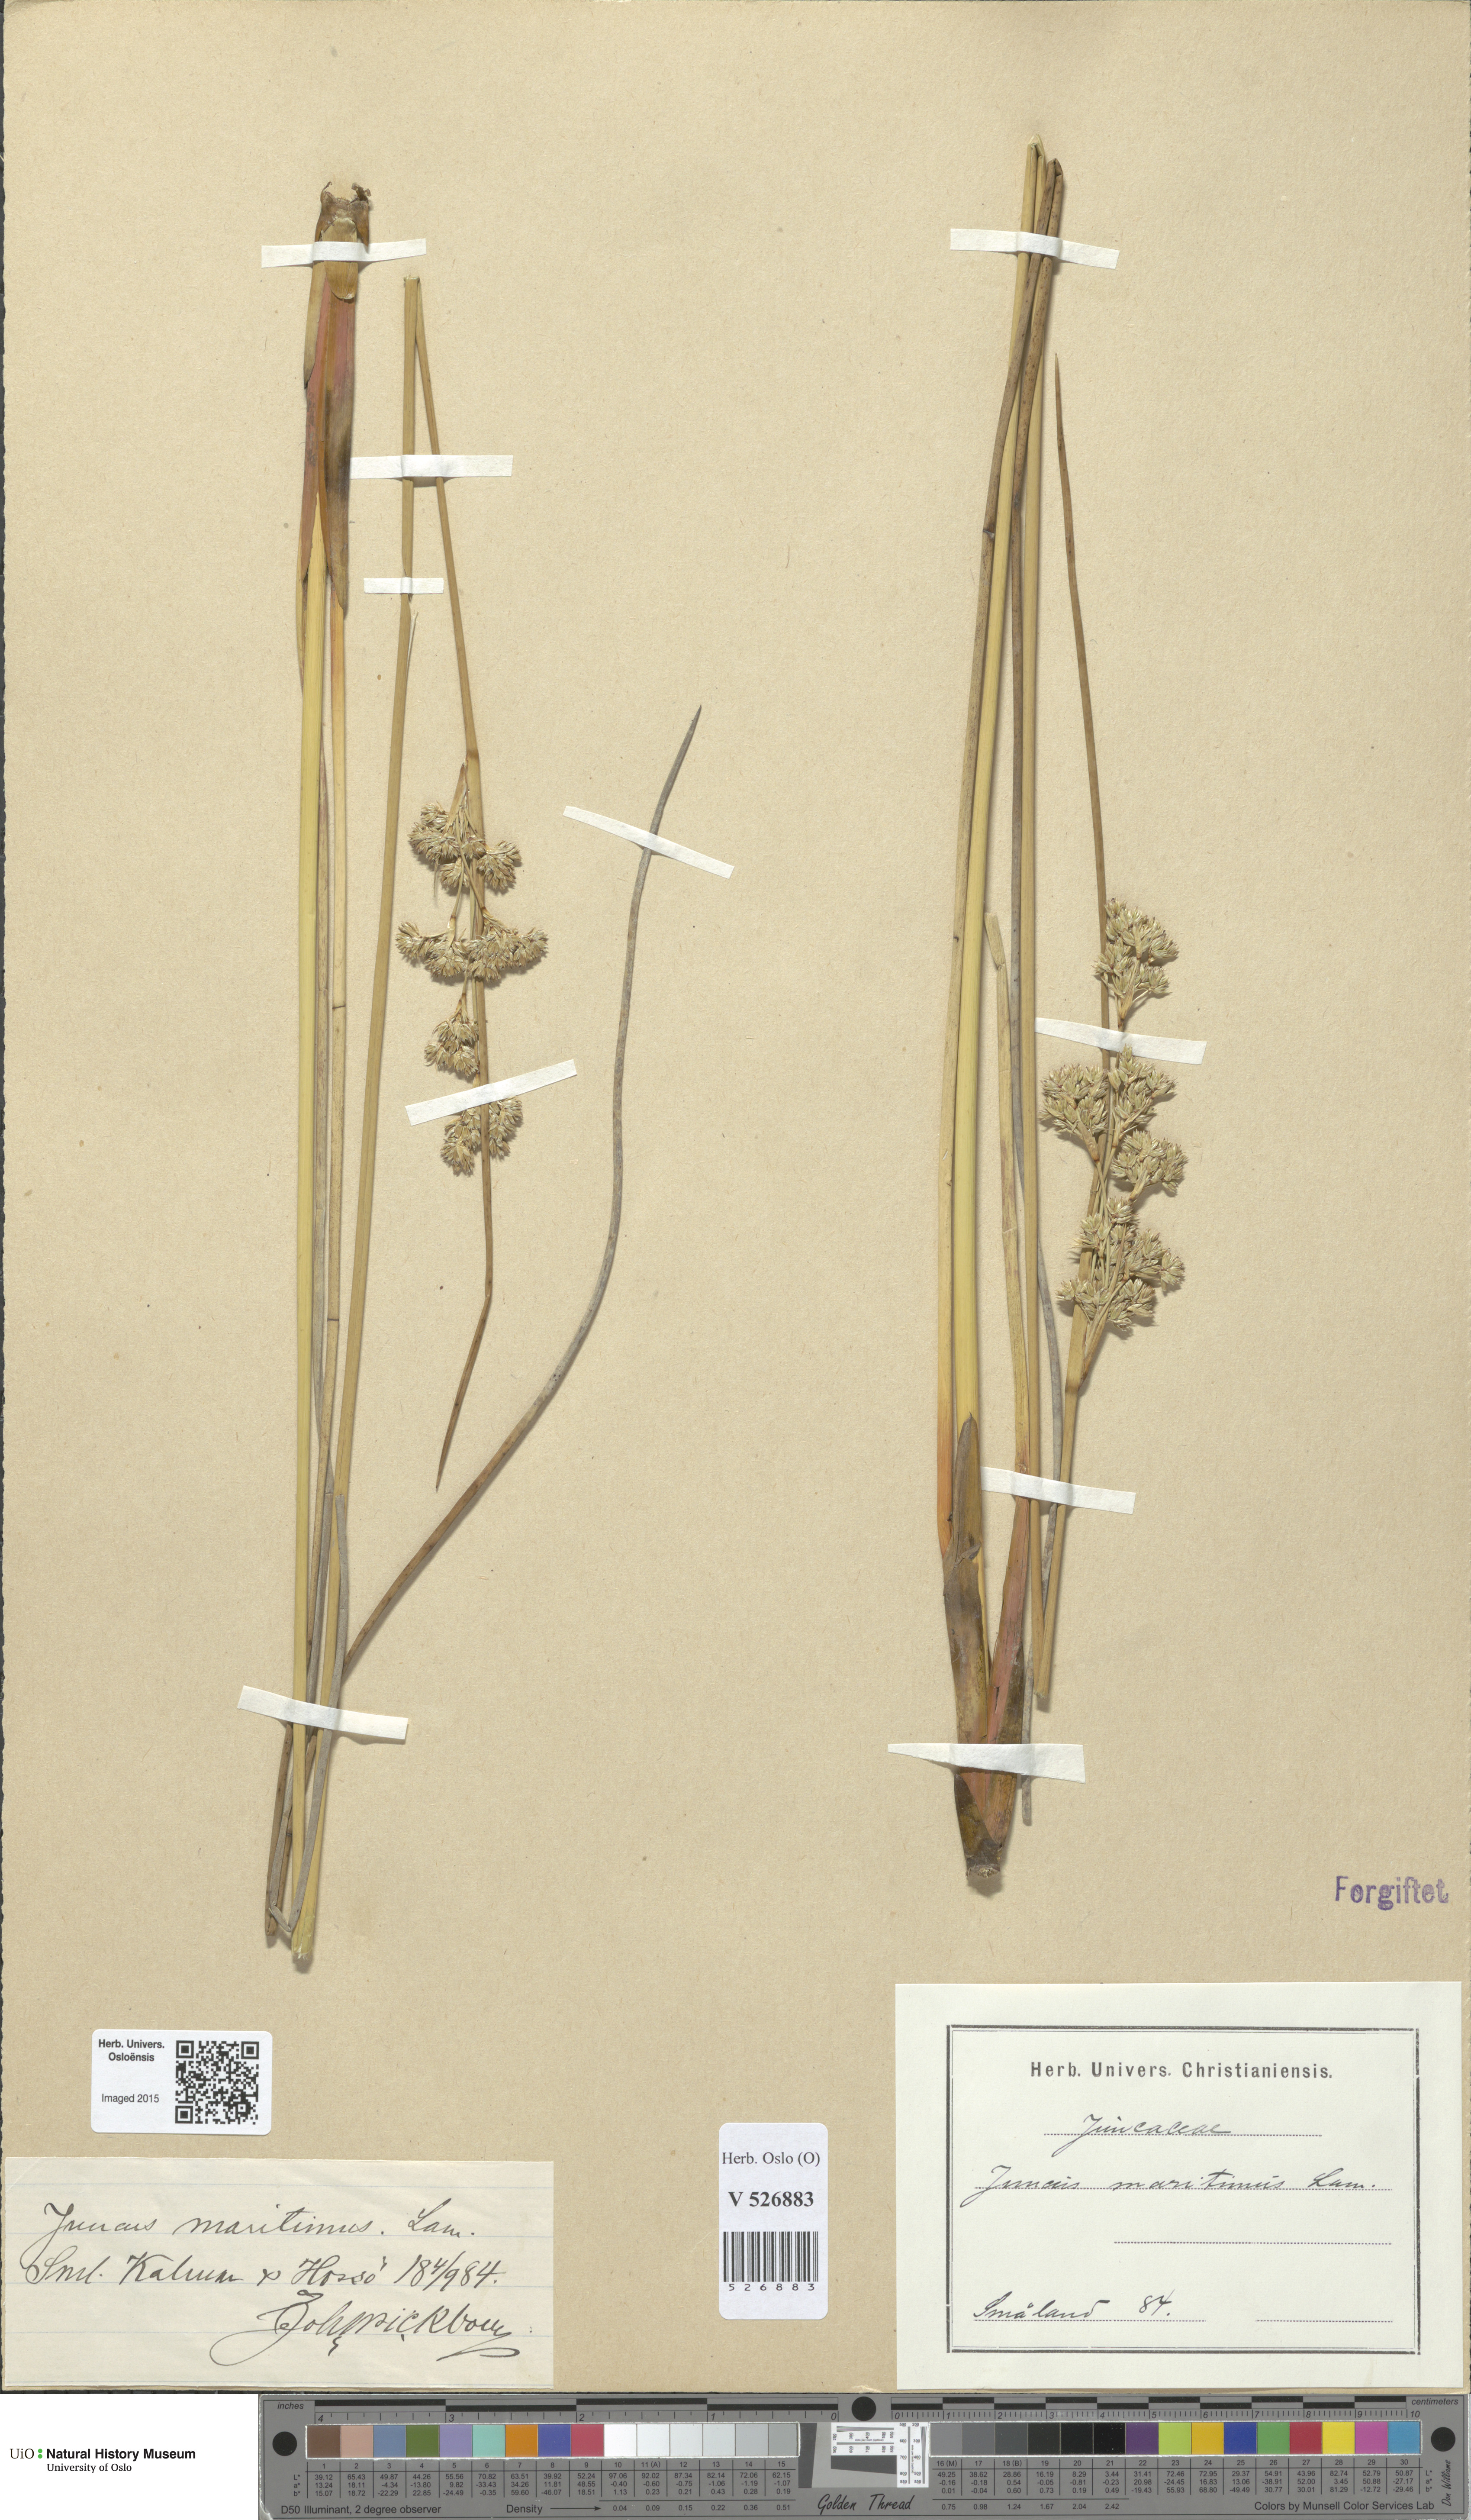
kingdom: Plantae
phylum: Tracheophyta
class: Liliopsida
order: Poales
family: Juncaceae
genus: Juncus
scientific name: Juncus maritimus
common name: Sea rush
